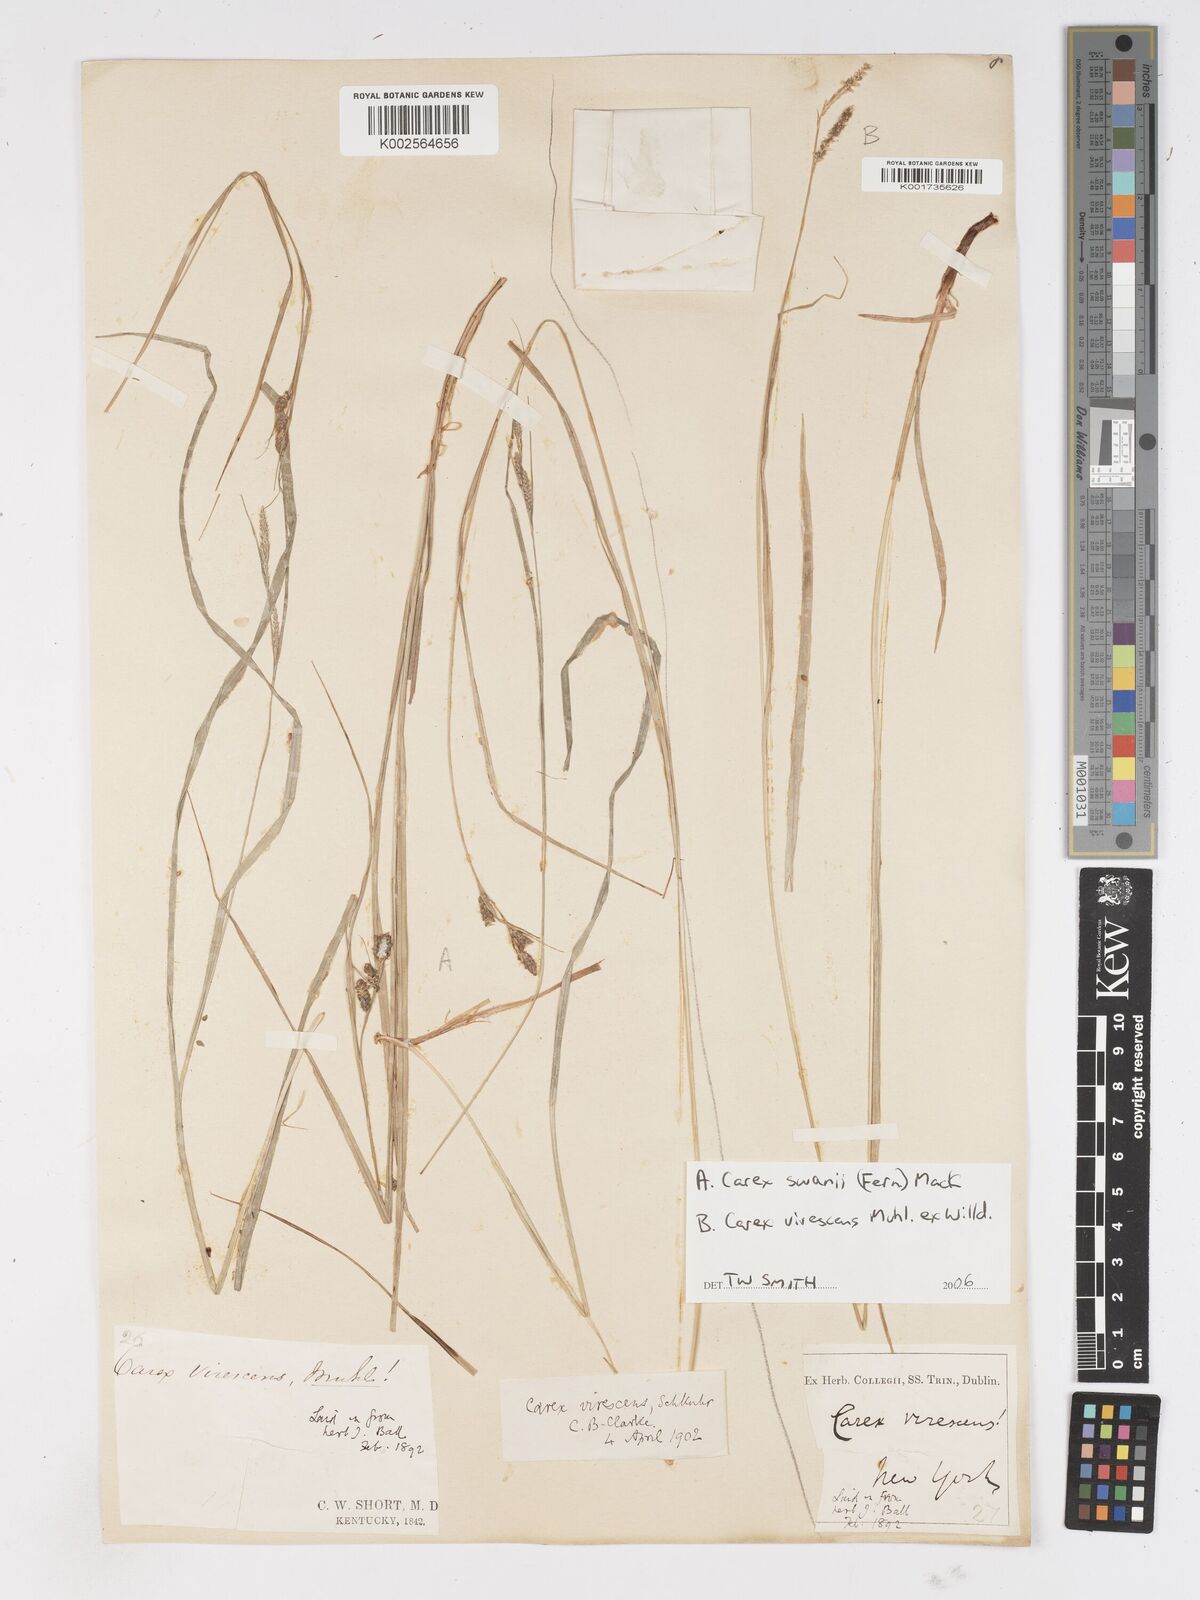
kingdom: Plantae
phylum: Tracheophyta
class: Liliopsida
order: Poales
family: Cyperaceae
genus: Carex
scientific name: Carex
